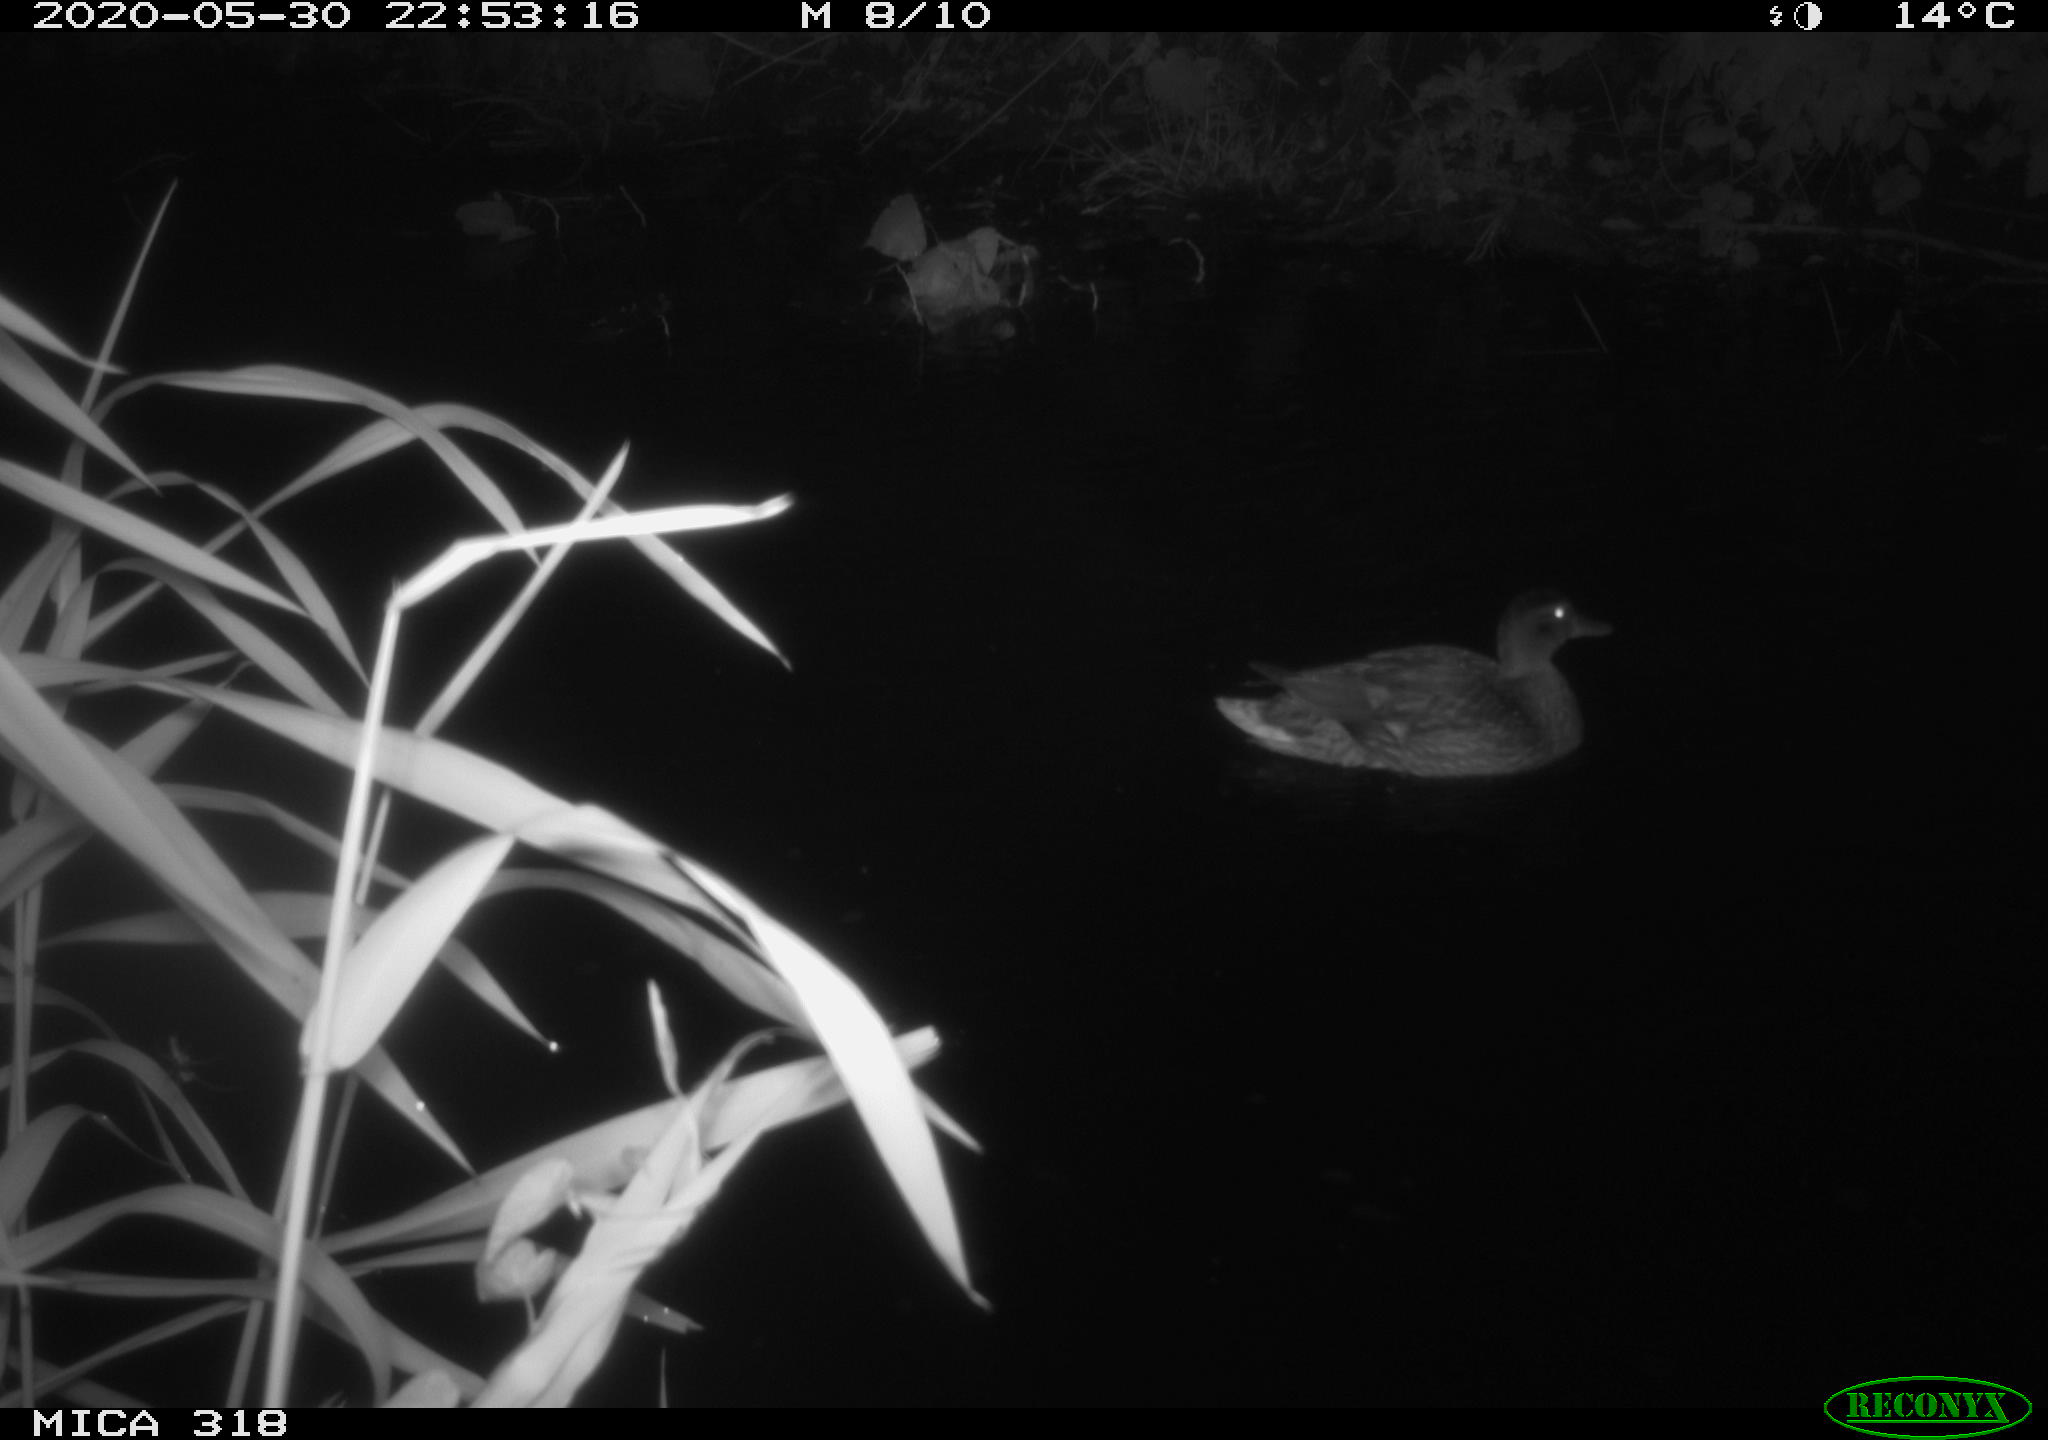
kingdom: Animalia
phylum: Chordata
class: Aves
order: Pelecaniformes
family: Ardeidae
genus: Ardea
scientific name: Ardea cinerea
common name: Grey heron
